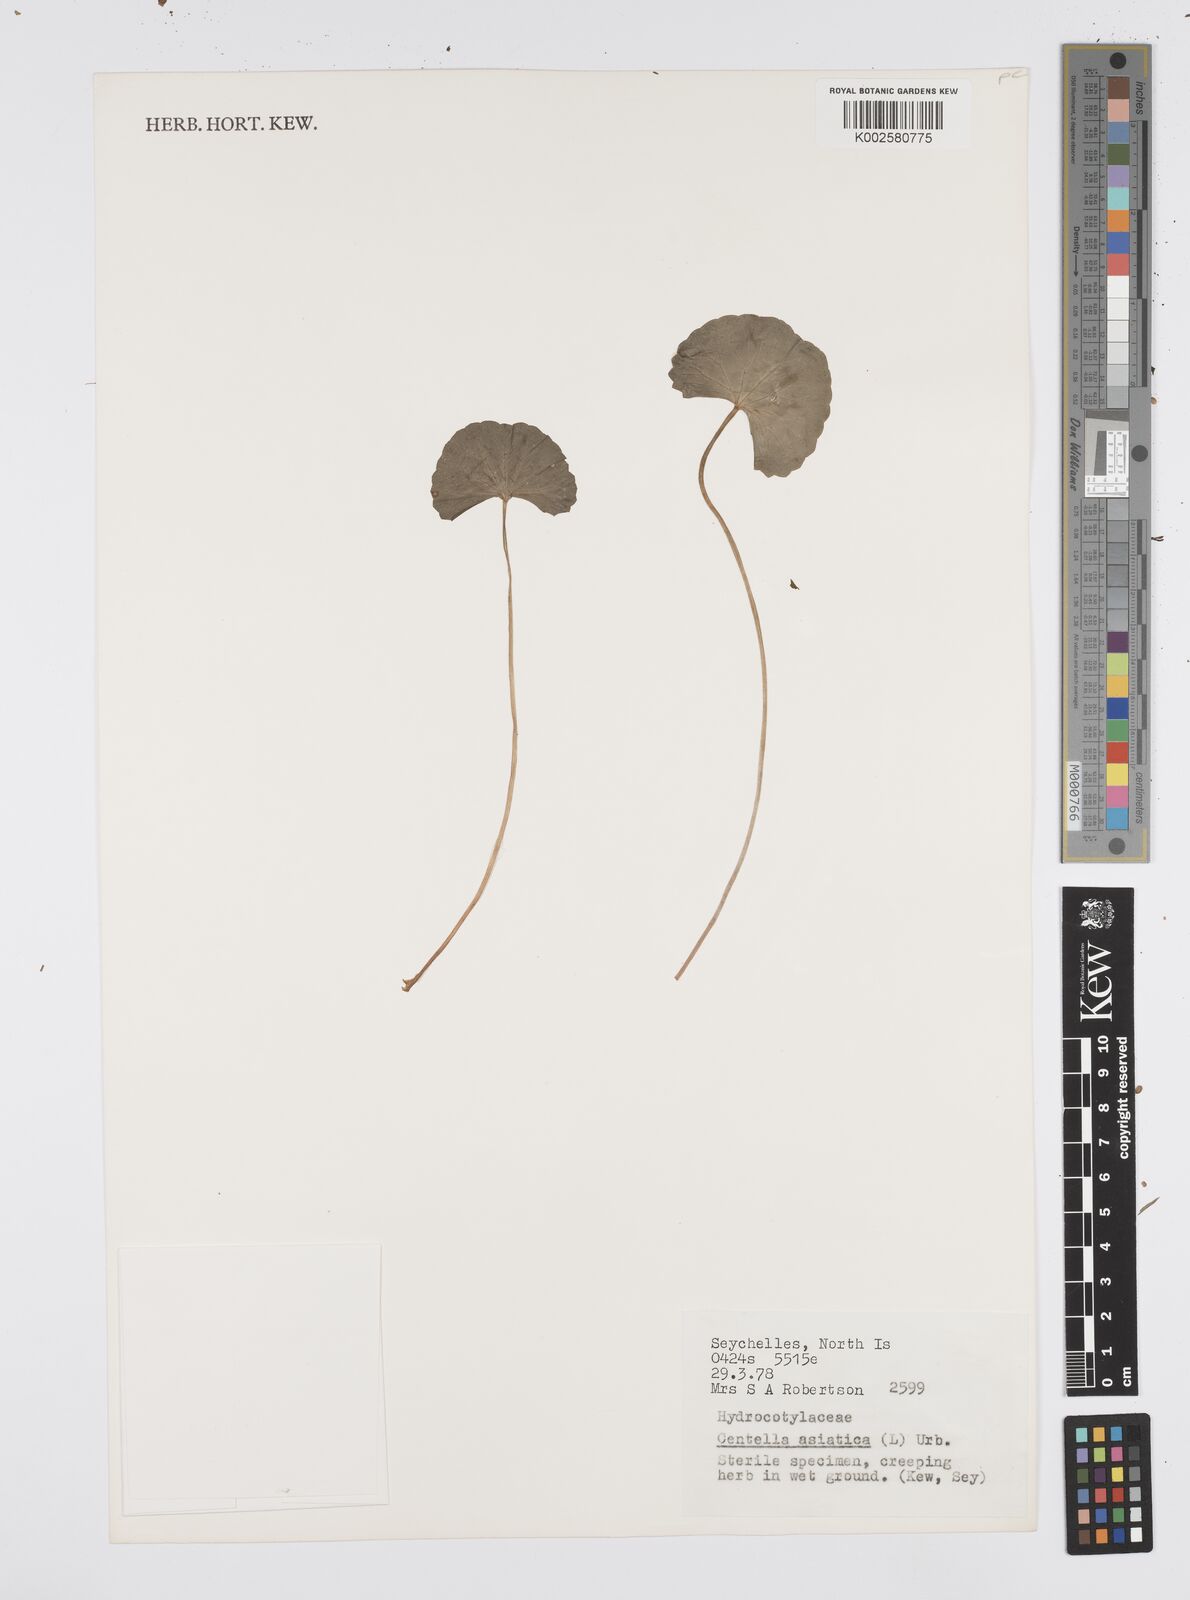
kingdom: Plantae
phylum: Tracheophyta
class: Magnoliopsida
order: Apiales
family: Apiaceae
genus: Centella
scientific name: Centella asiatica
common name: Spadeleaf
